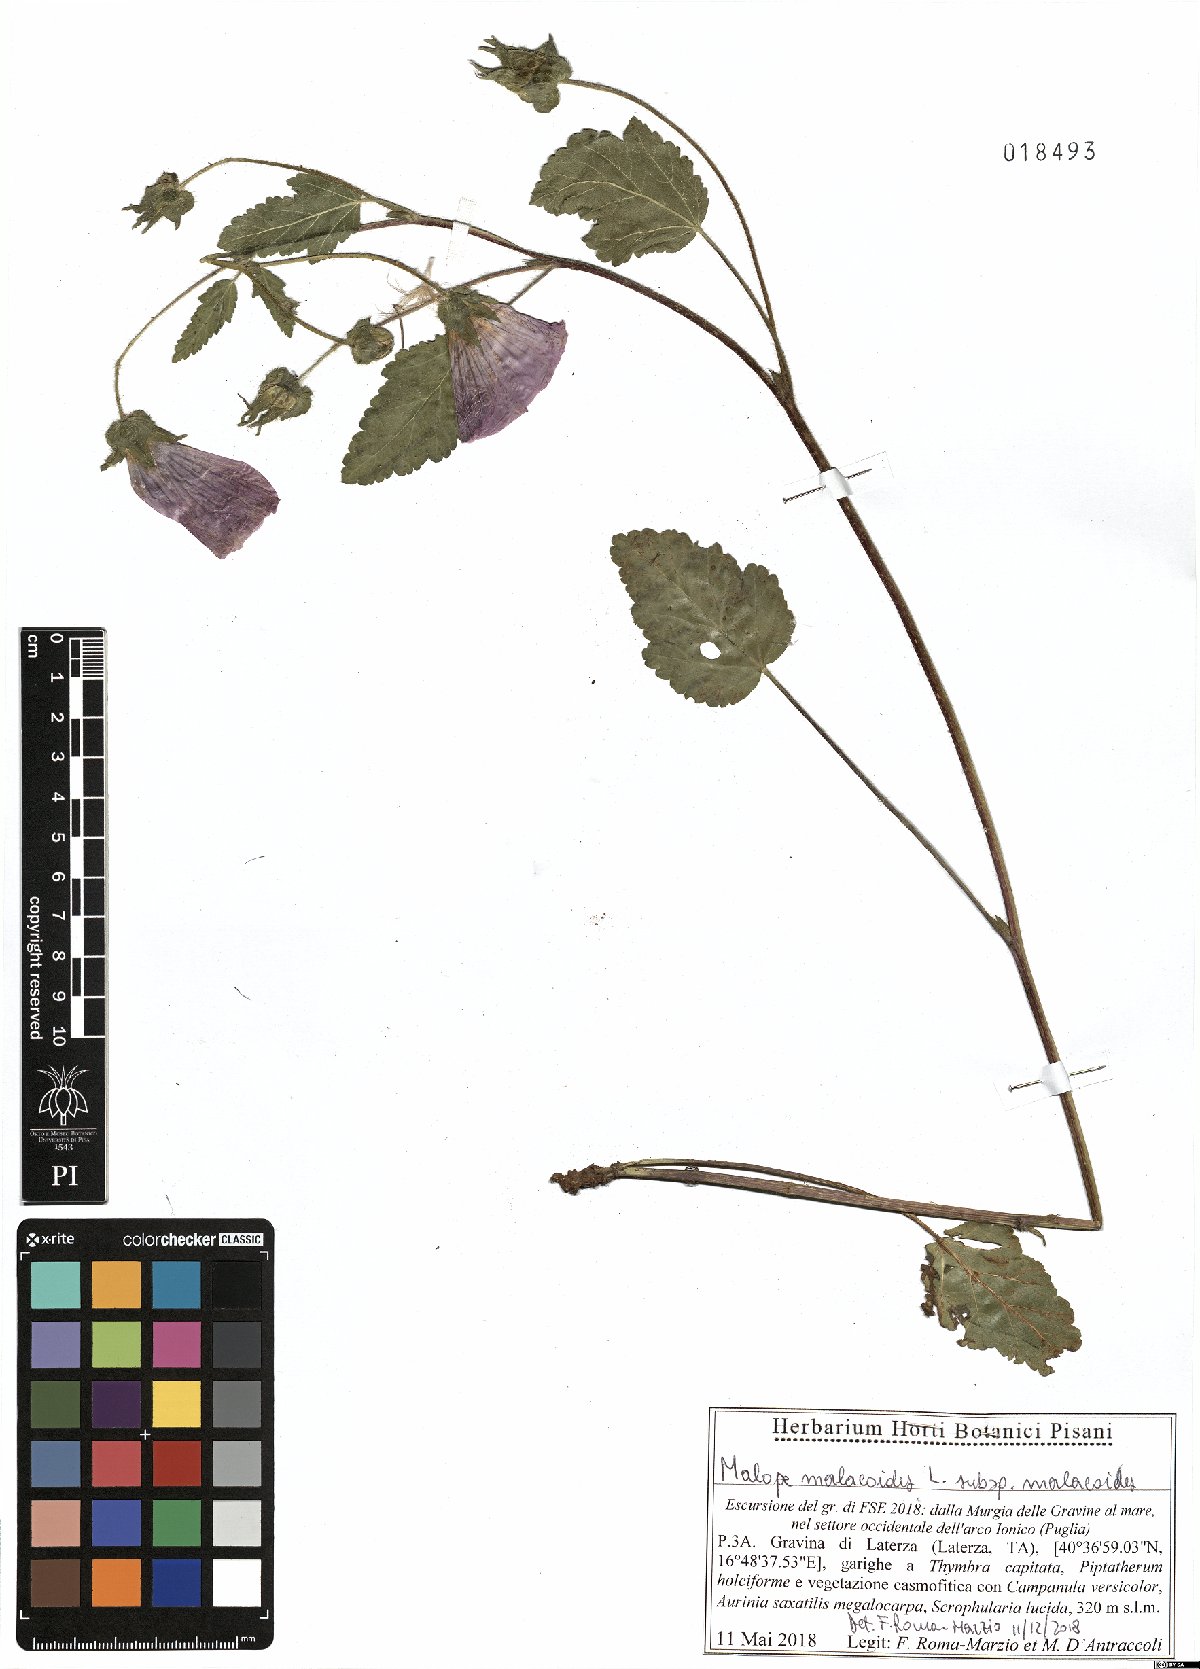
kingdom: Plantae
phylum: Tracheophyta
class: Magnoliopsida
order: Malvales
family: Malvaceae
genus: Malope
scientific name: Malope malacoides
